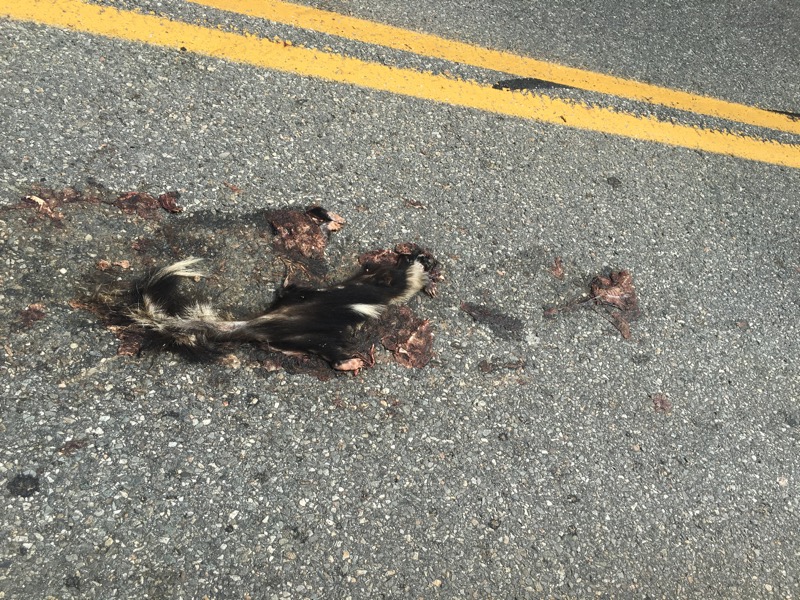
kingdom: Animalia
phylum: Chordata
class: Mammalia
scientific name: Mammalia
